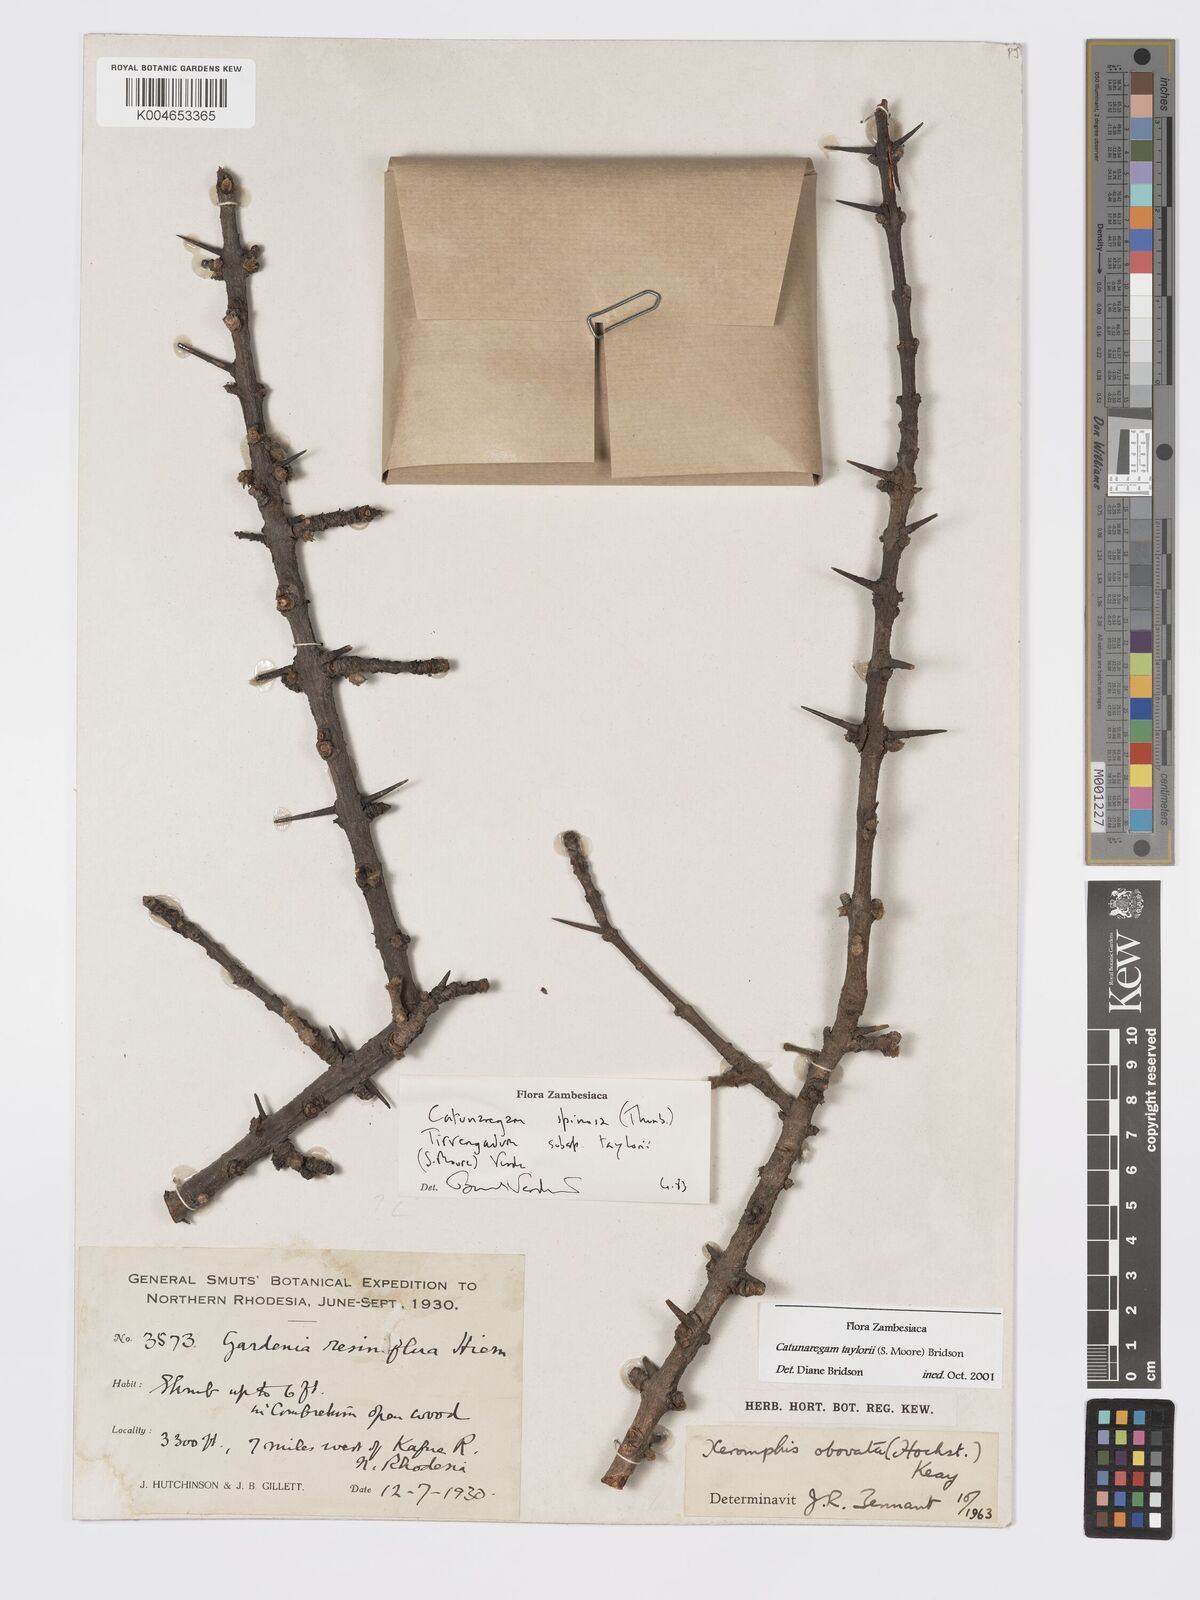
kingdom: Plantae
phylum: Tracheophyta
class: Magnoliopsida
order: Gentianales
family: Rubiaceae
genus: Catunaregam
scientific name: Catunaregam obovata
